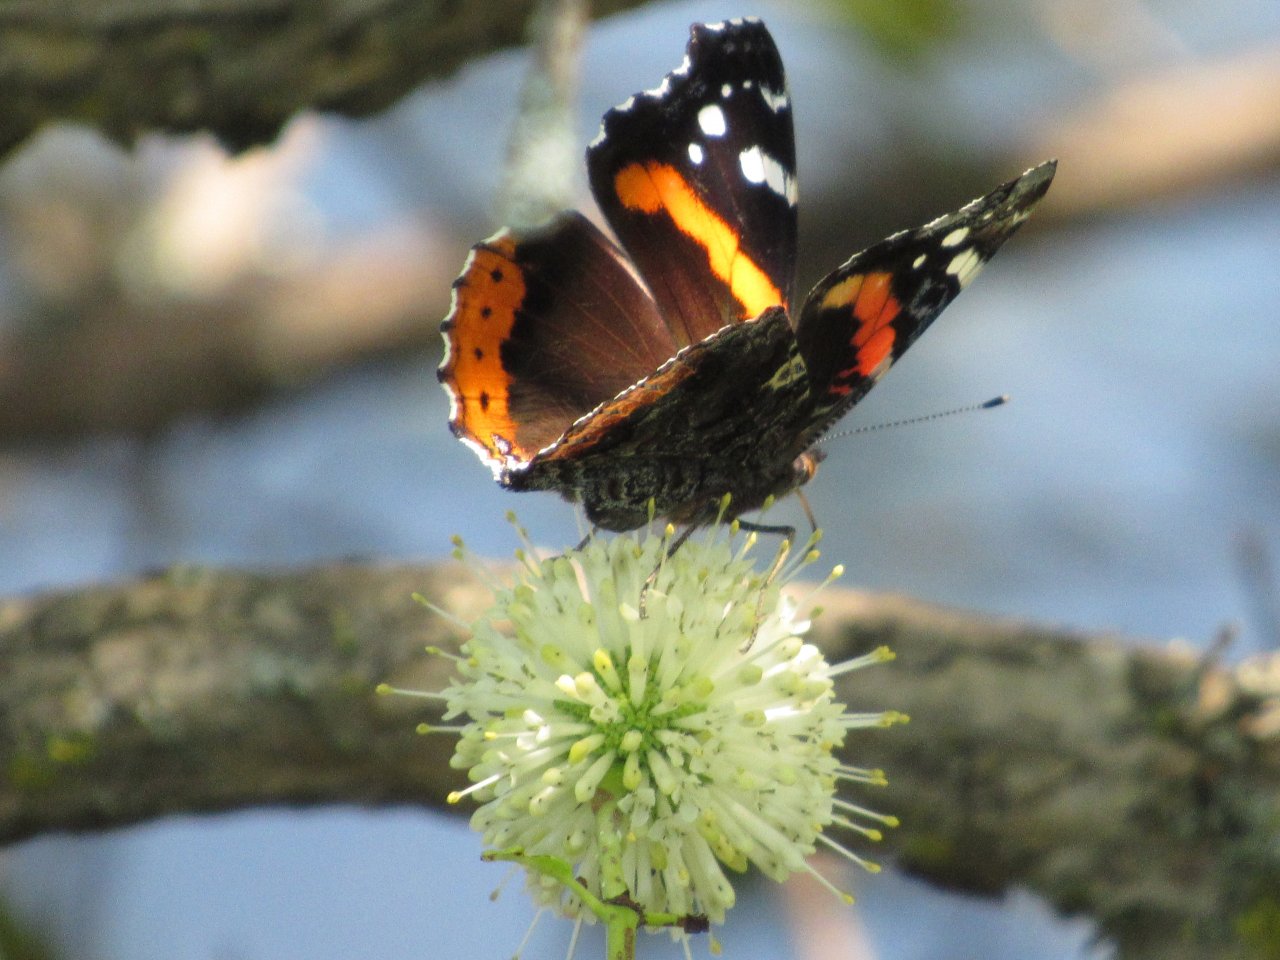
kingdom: Animalia
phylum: Arthropoda
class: Insecta
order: Lepidoptera
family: Nymphalidae
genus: Vanessa
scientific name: Vanessa atalanta
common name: Red Admiral
